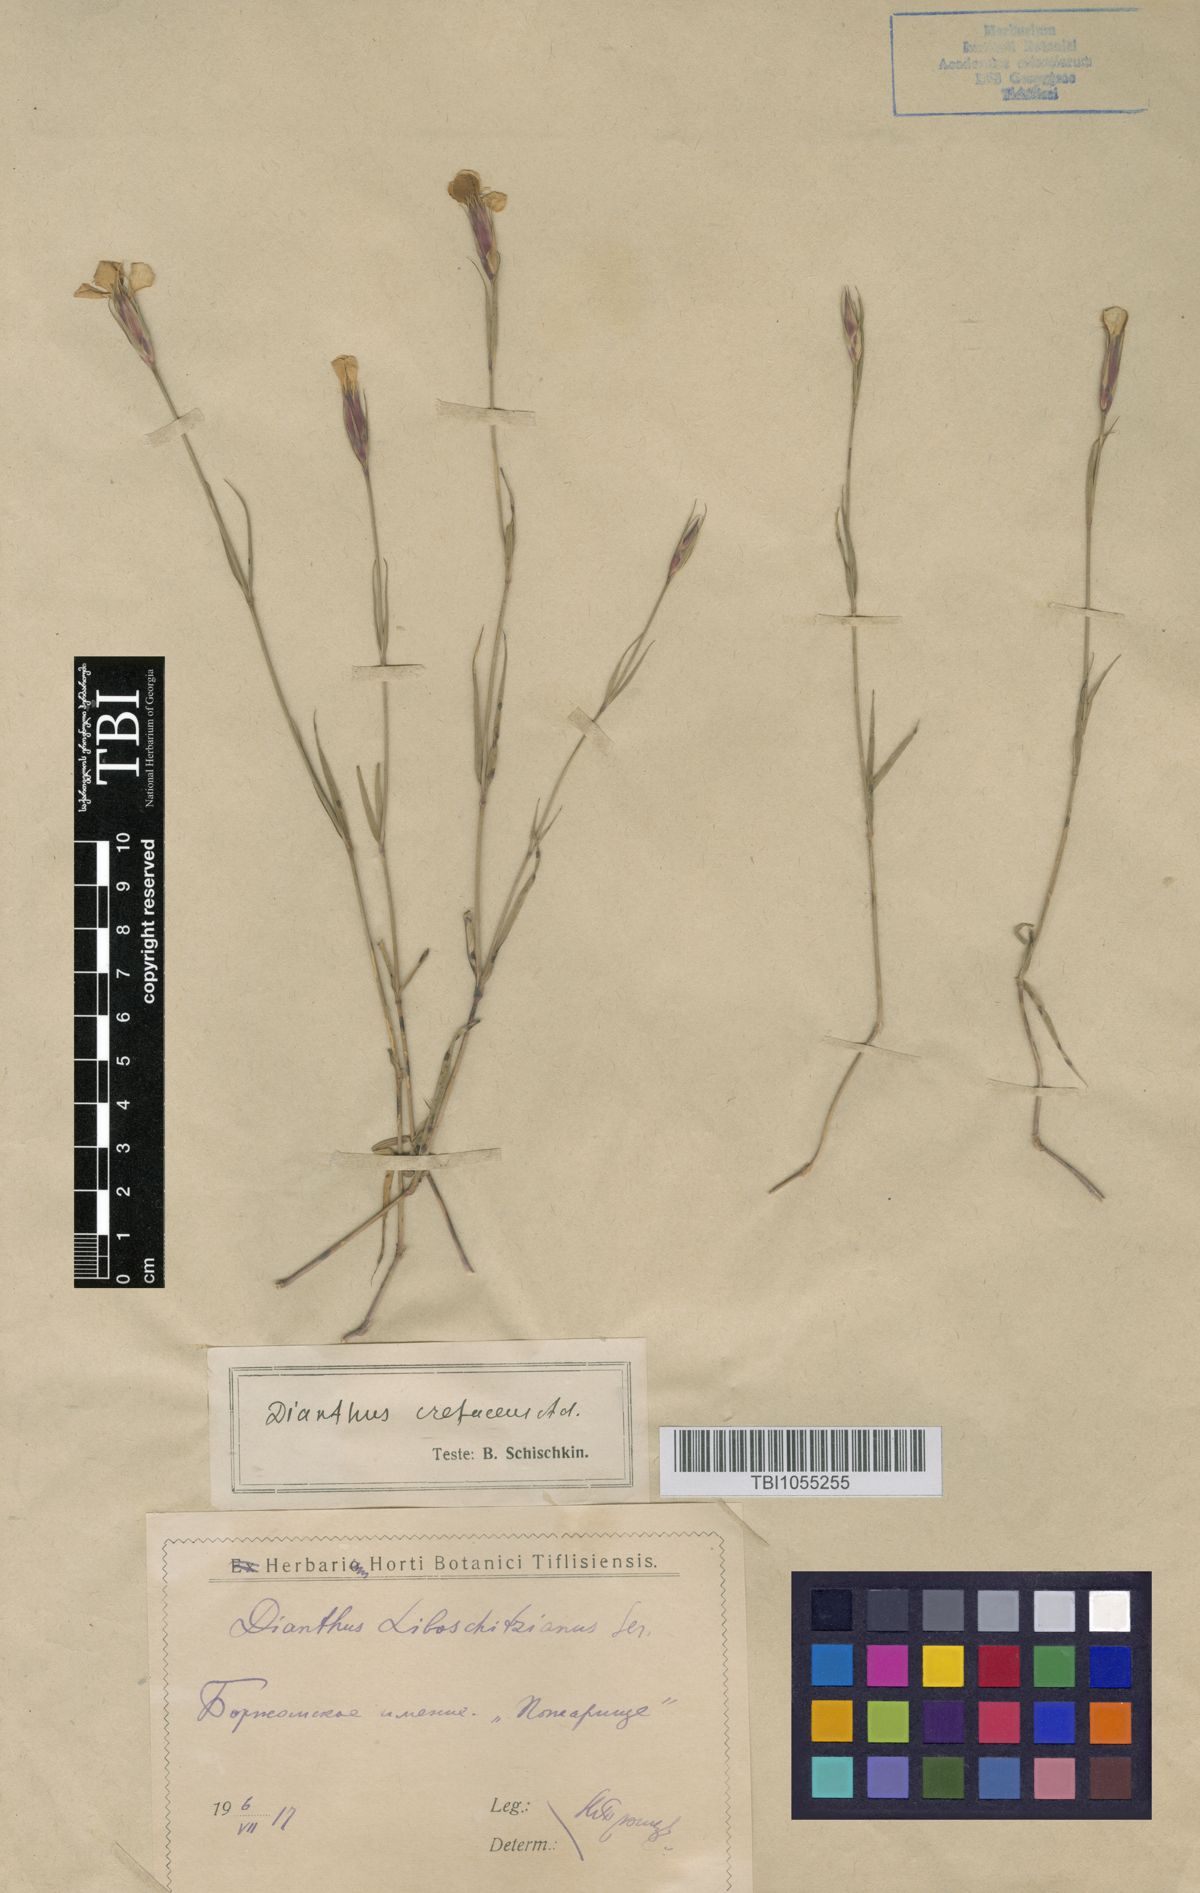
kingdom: Plantae
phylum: Tracheophyta
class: Magnoliopsida
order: Caryophyllales
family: Caryophyllaceae
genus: Dianthus
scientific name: Dianthus cretaceus
